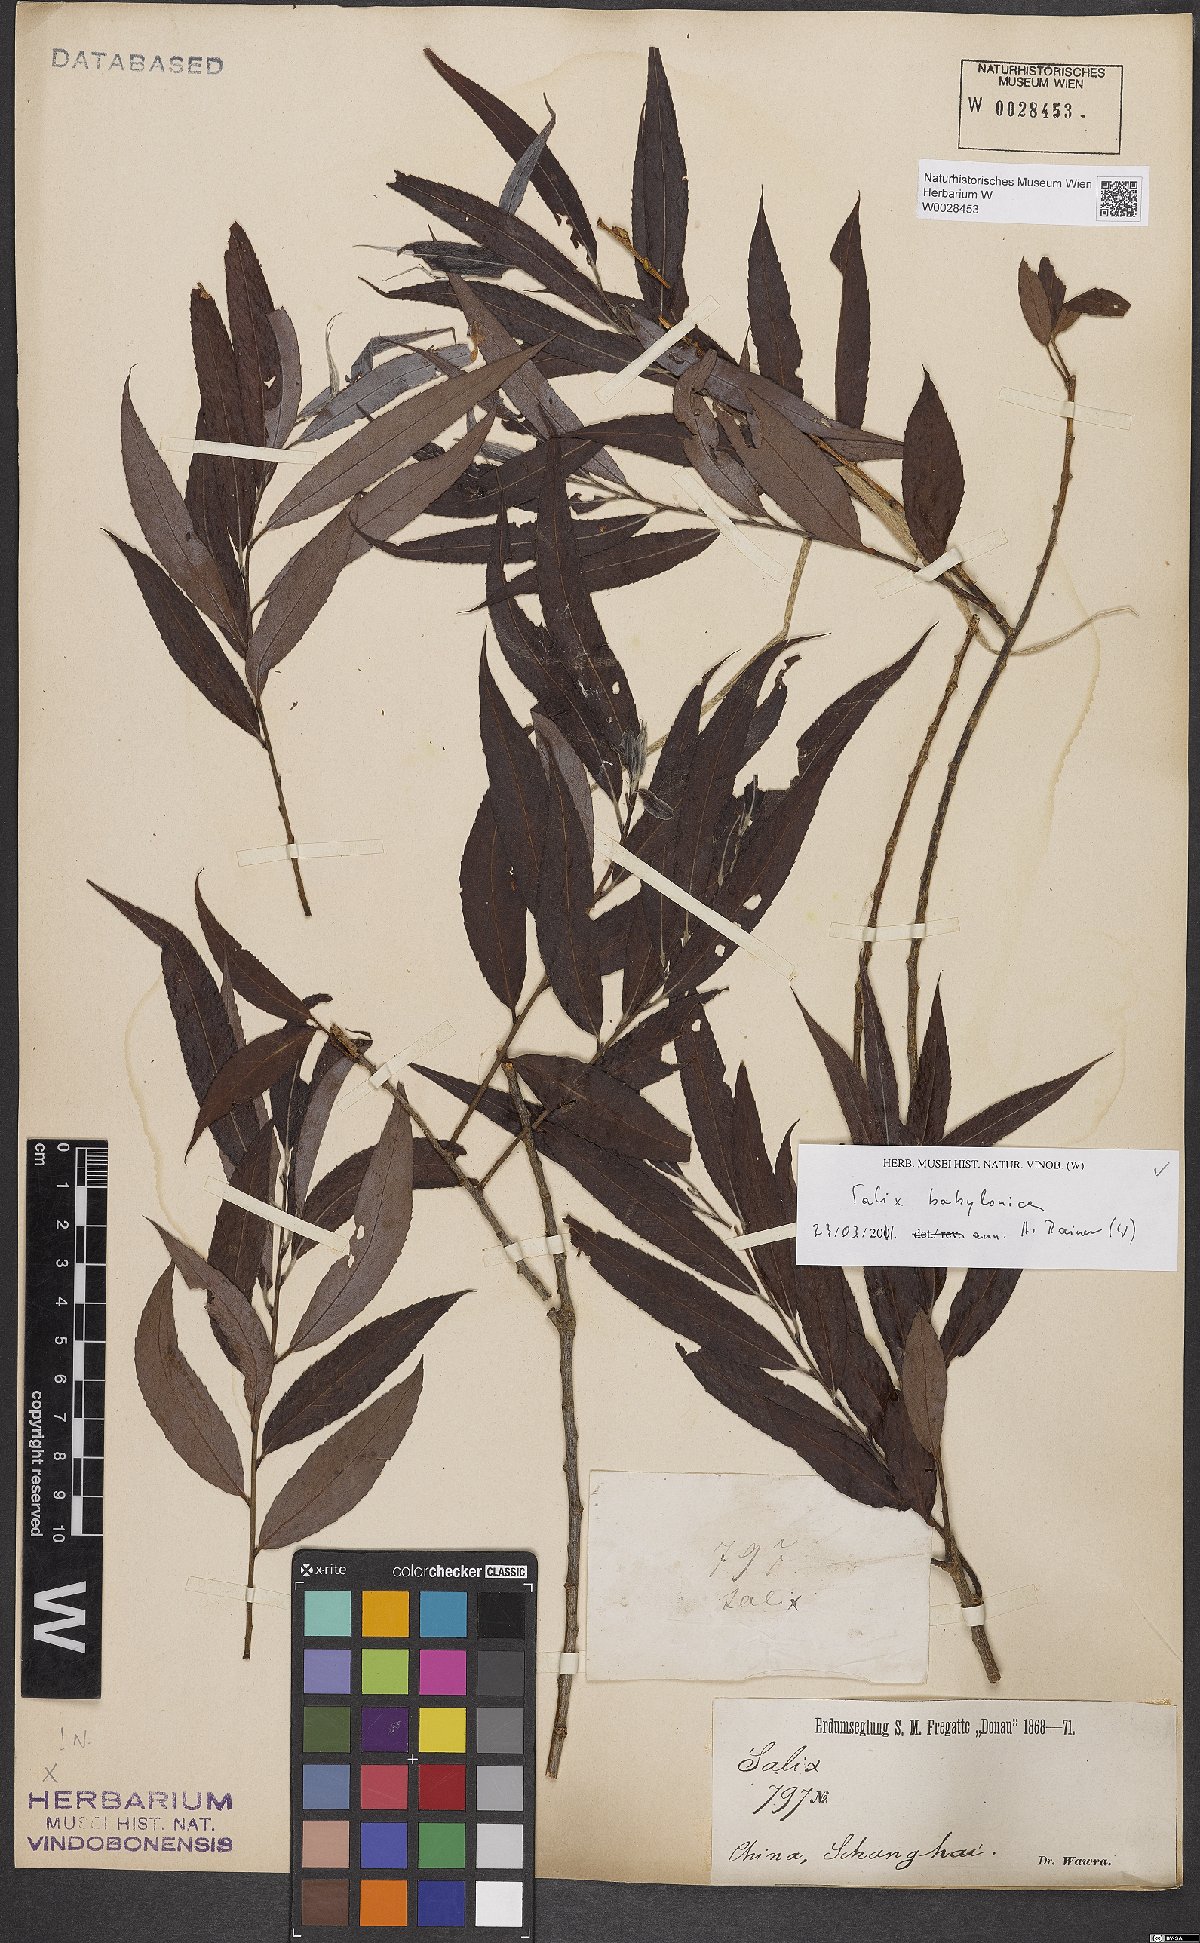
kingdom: Plantae
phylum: Tracheophyta
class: Magnoliopsida
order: Malpighiales
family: Salicaceae
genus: Salix
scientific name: Salix babylonica
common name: Weeping willow
